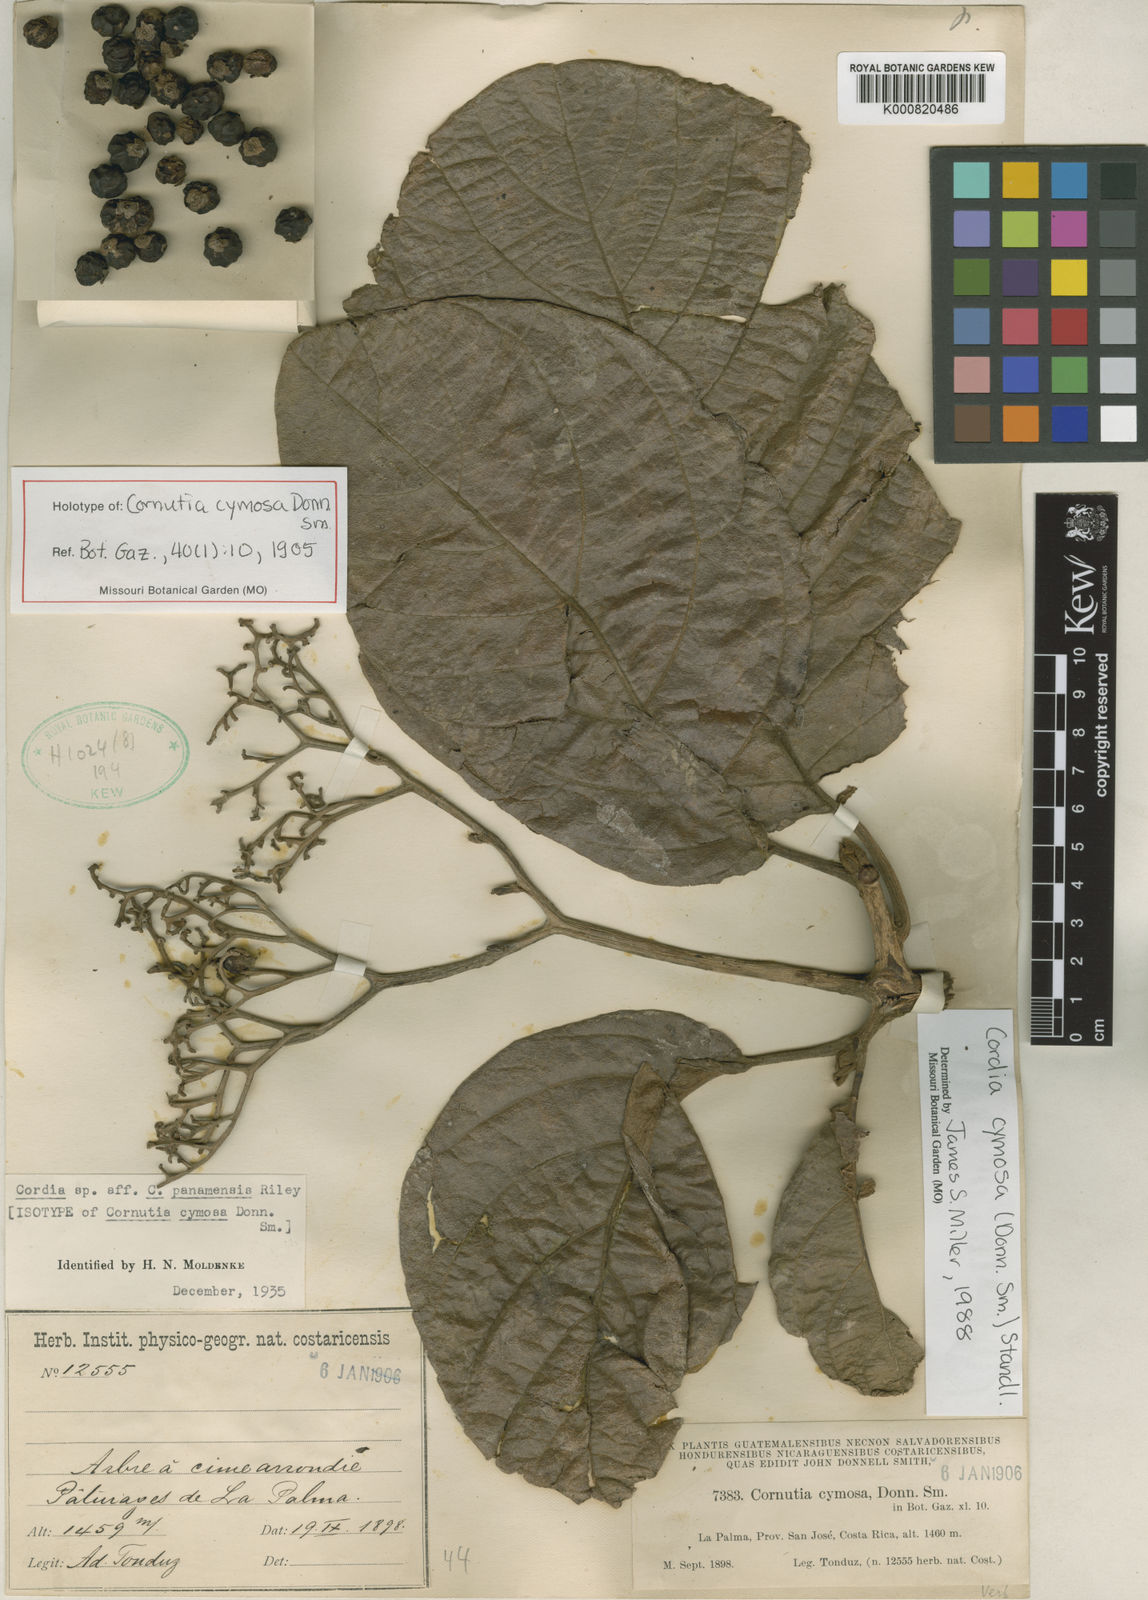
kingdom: Plantae
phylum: Tracheophyta
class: Magnoliopsida
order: Boraginales
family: Cordiaceae
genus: Cordia
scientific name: Cordia cymosa
